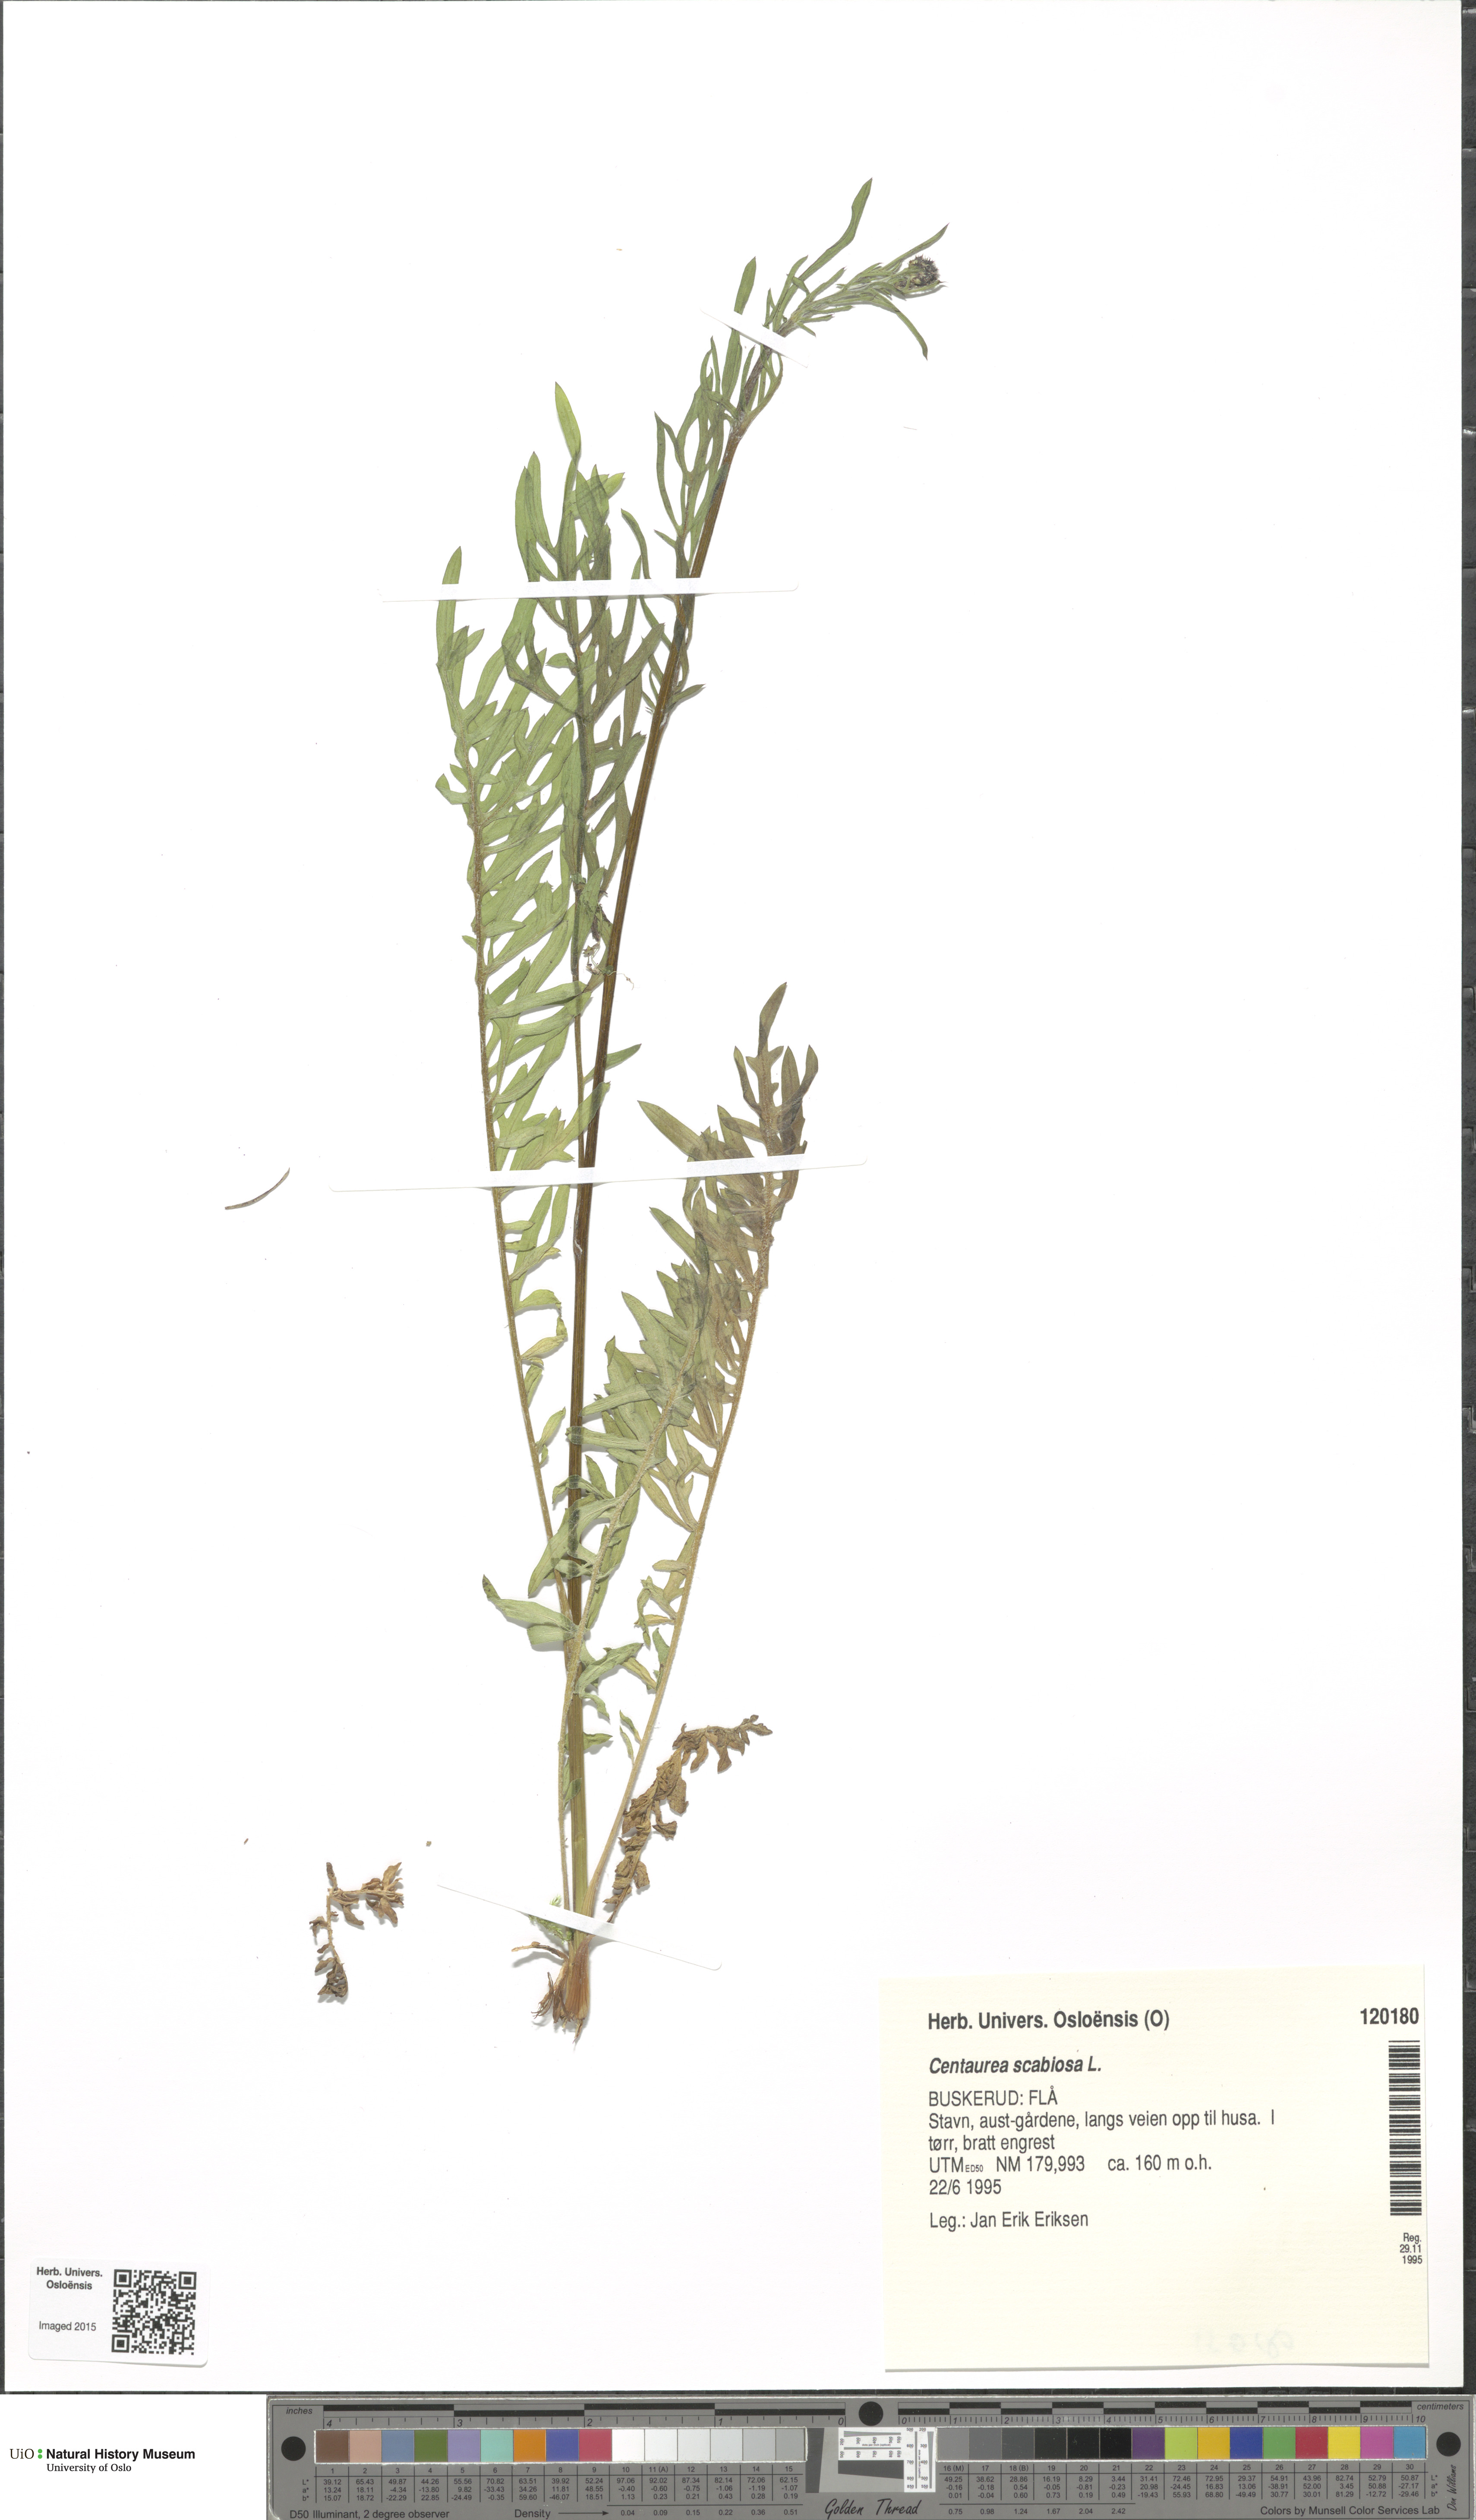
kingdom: Plantae
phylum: Tracheophyta
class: Magnoliopsida
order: Asterales
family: Asteraceae
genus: Centaurea
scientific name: Centaurea scabiosa
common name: Greater knapweed
